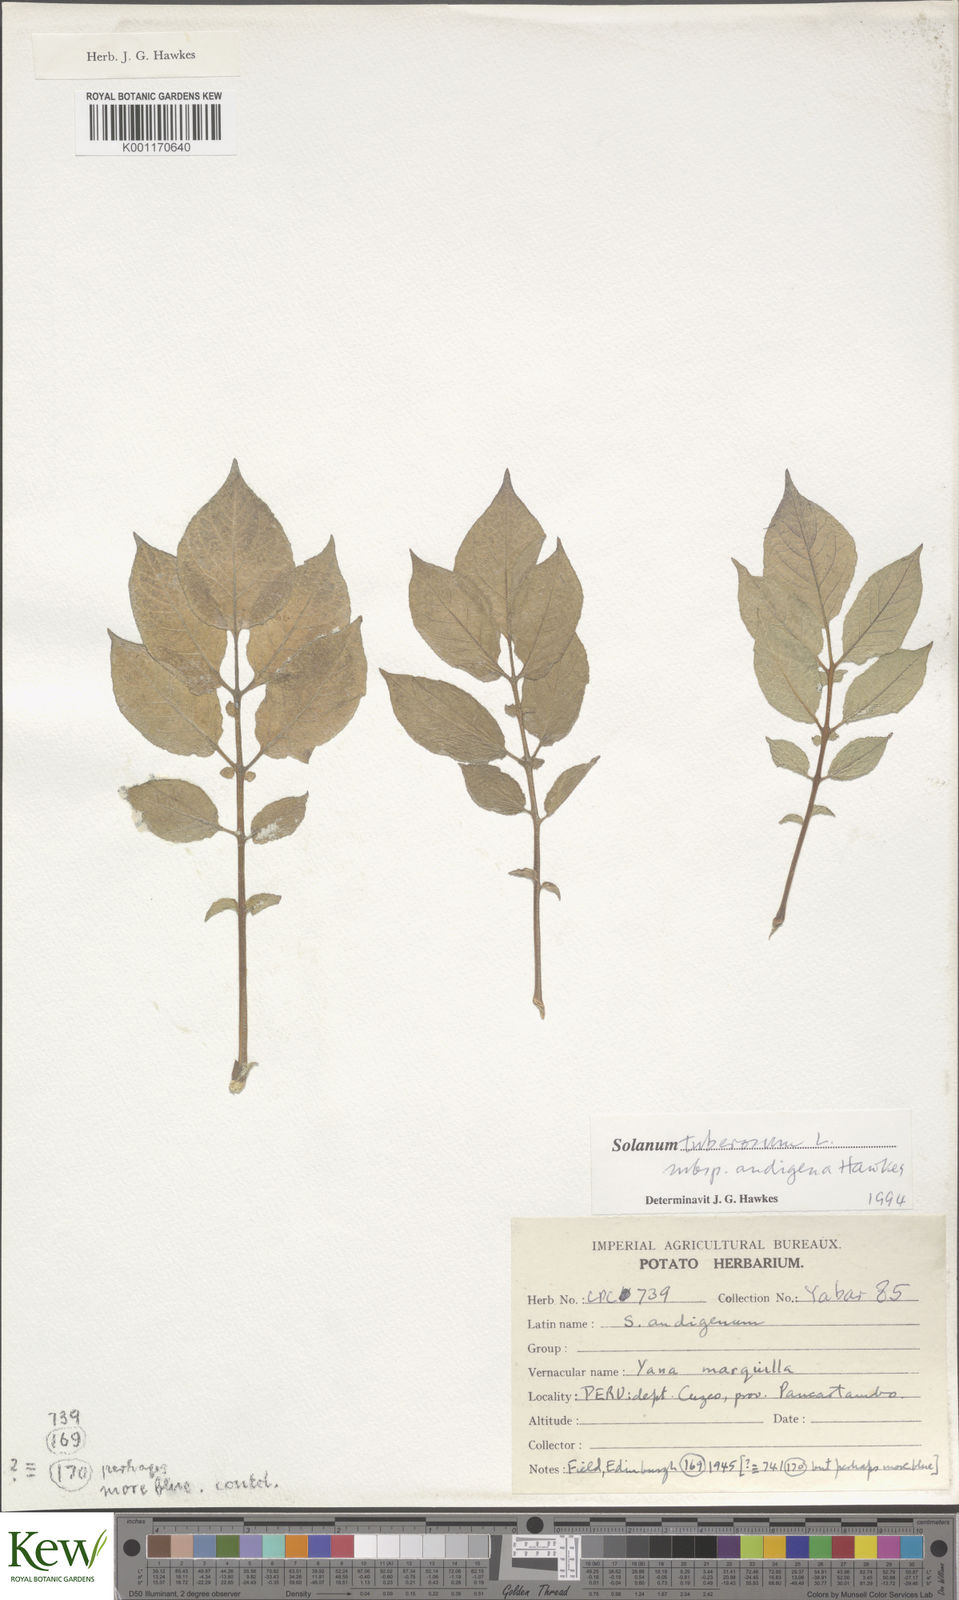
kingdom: Plantae
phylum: Tracheophyta
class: Magnoliopsida
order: Solanales
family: Solanaceae
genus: Solanum
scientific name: Solanum tuberosum
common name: Potato
